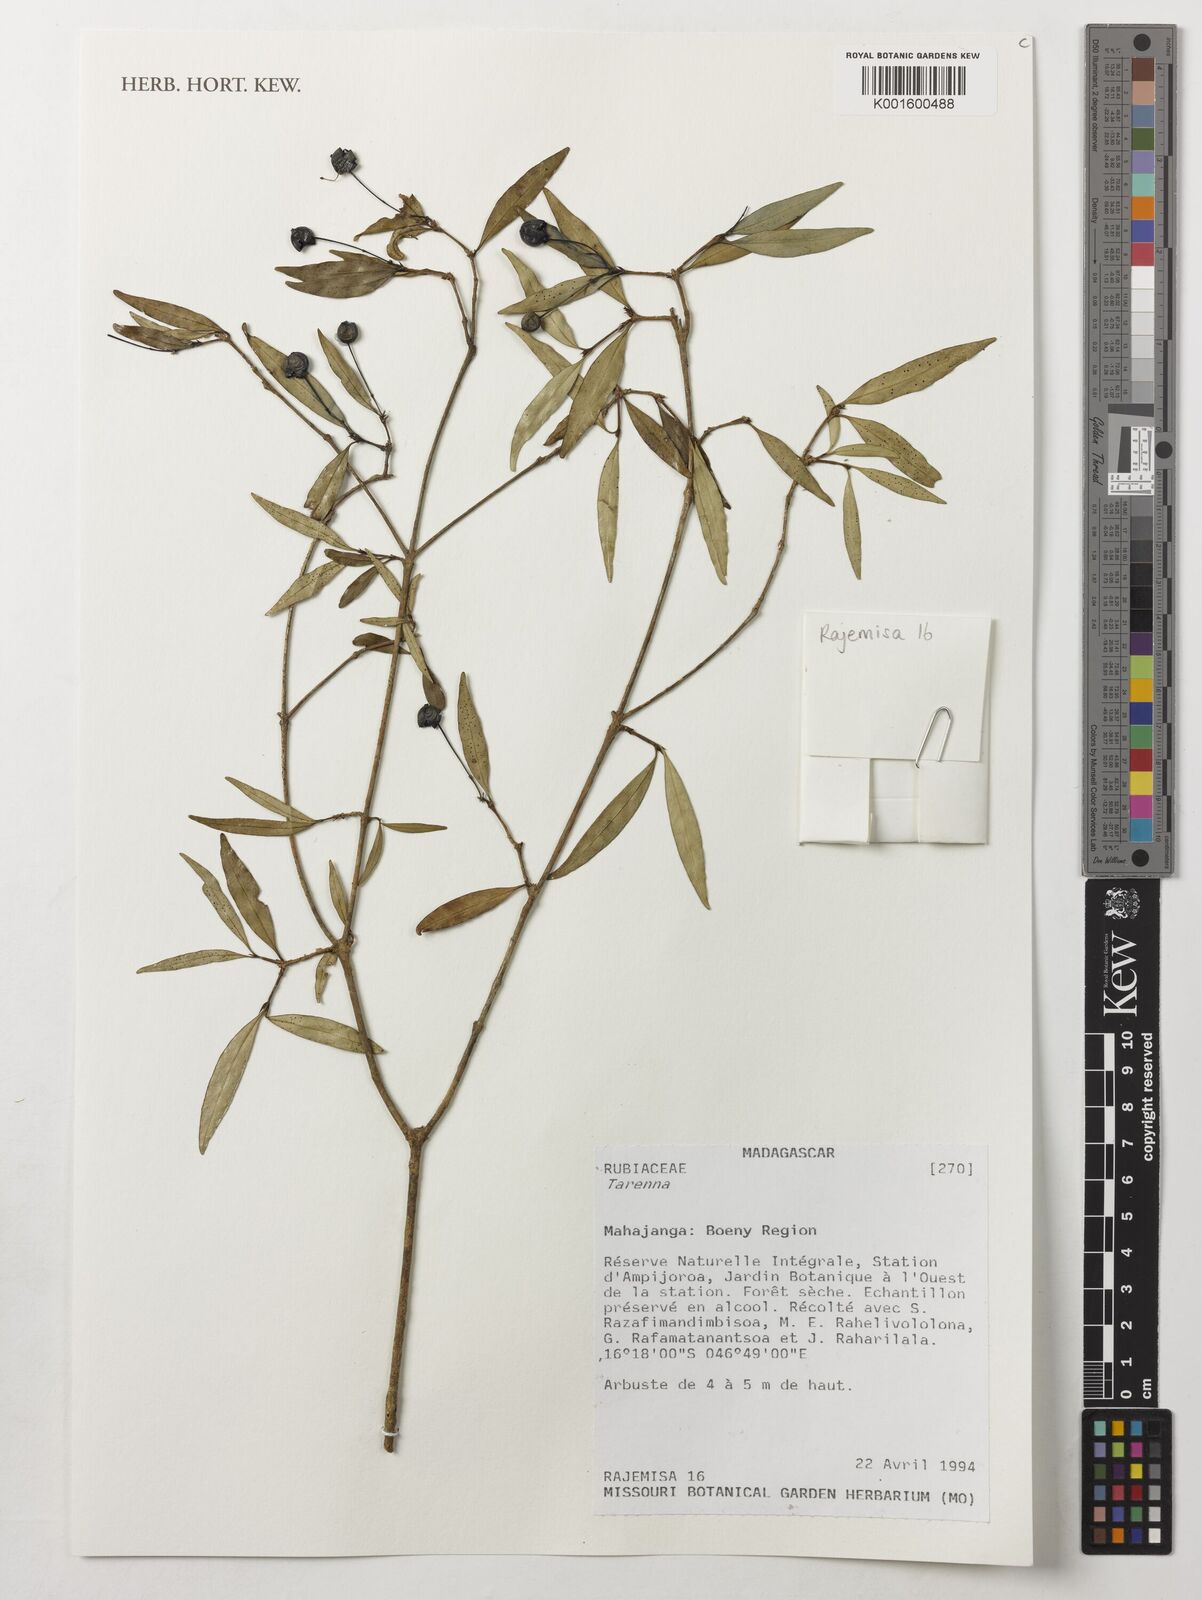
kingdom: Plantae
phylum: Tracheophyta
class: Magnoliopsida
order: Gentianales
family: Rubiaceae
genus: Tarenna
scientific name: Tarenna
